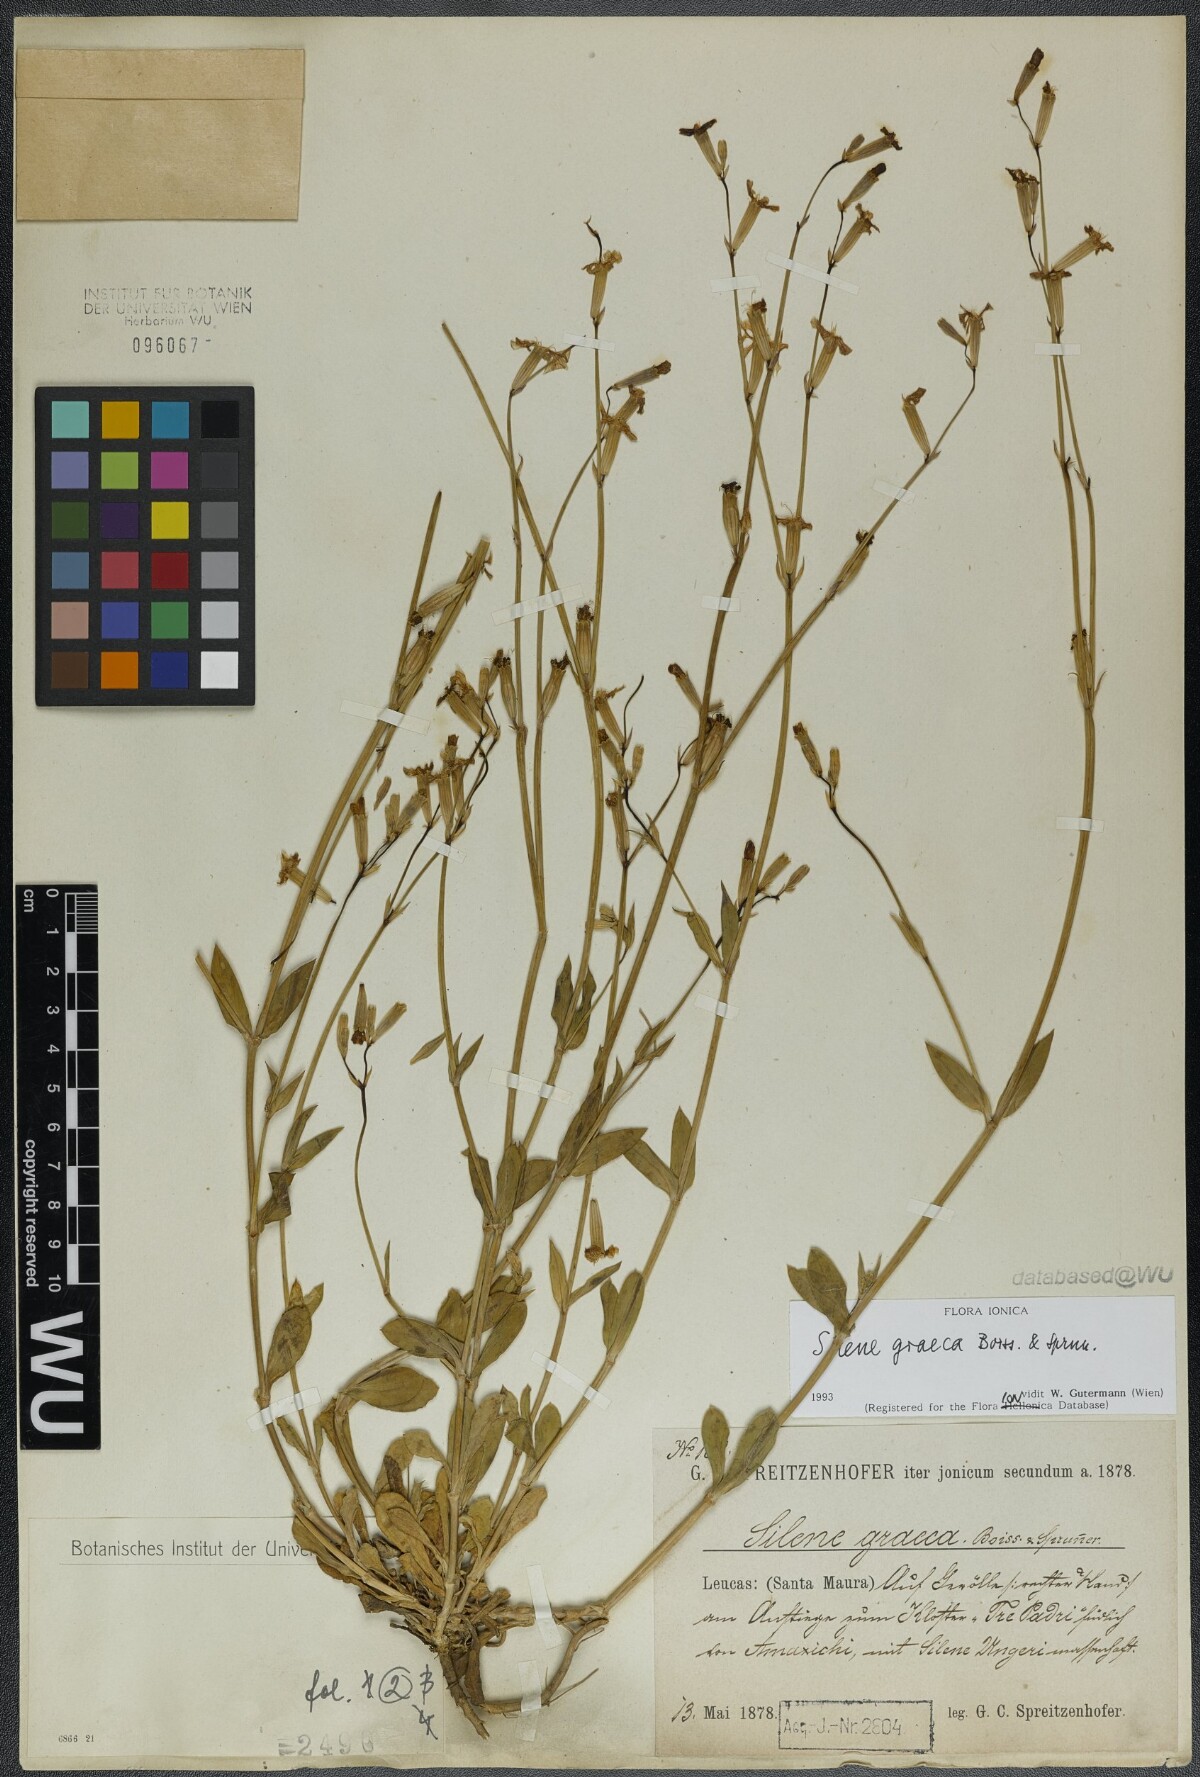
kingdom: Plantae
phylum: Tracheophyta
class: Magnoliopsida
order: Caryophyllales
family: Caryophyllaceae
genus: Silene
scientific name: Silene graeca
